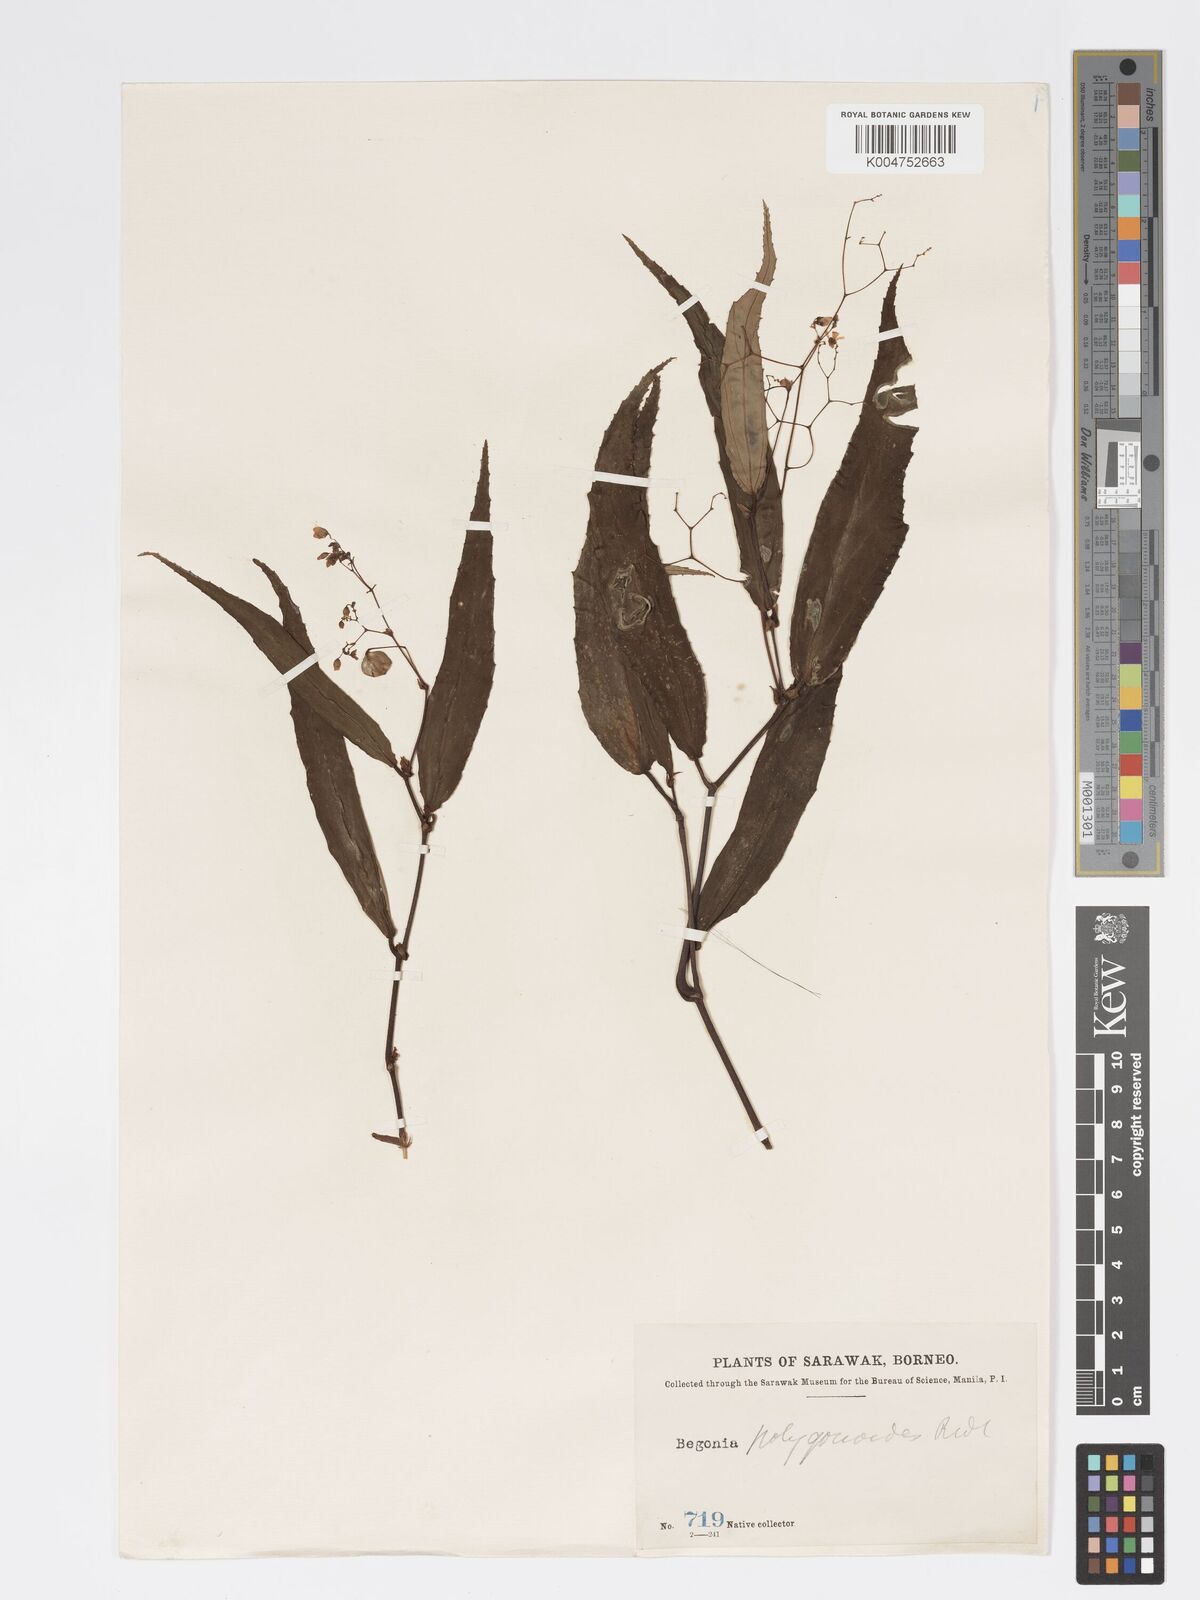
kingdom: Plantae
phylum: Tracheophyta
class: Magnoliopsida
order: Cucurbitales
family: Begoniaceae
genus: Begonia
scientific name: Begonia xiphophylla
